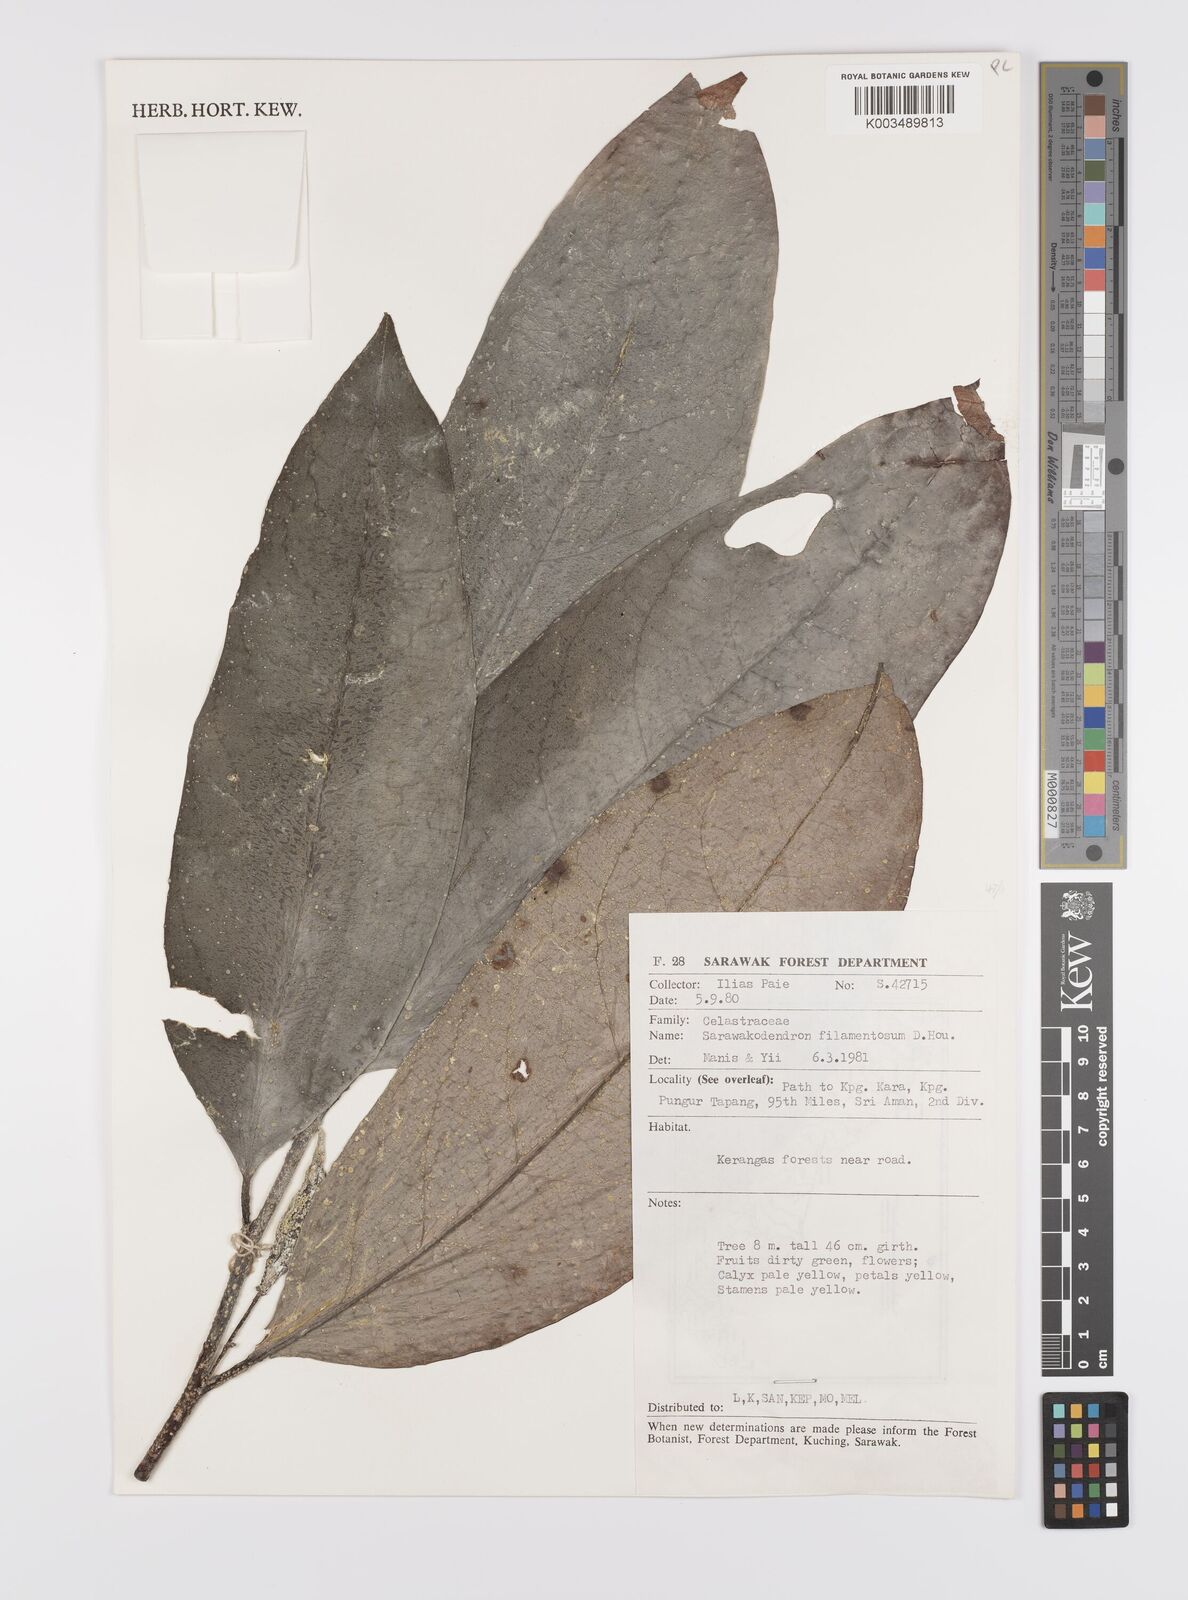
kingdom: Plantae
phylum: Tracheophyta
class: Magnoliopsida
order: Celastrales
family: Celastraceae
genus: Sarawakodendron
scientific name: Sarawakodendron filamentosum
